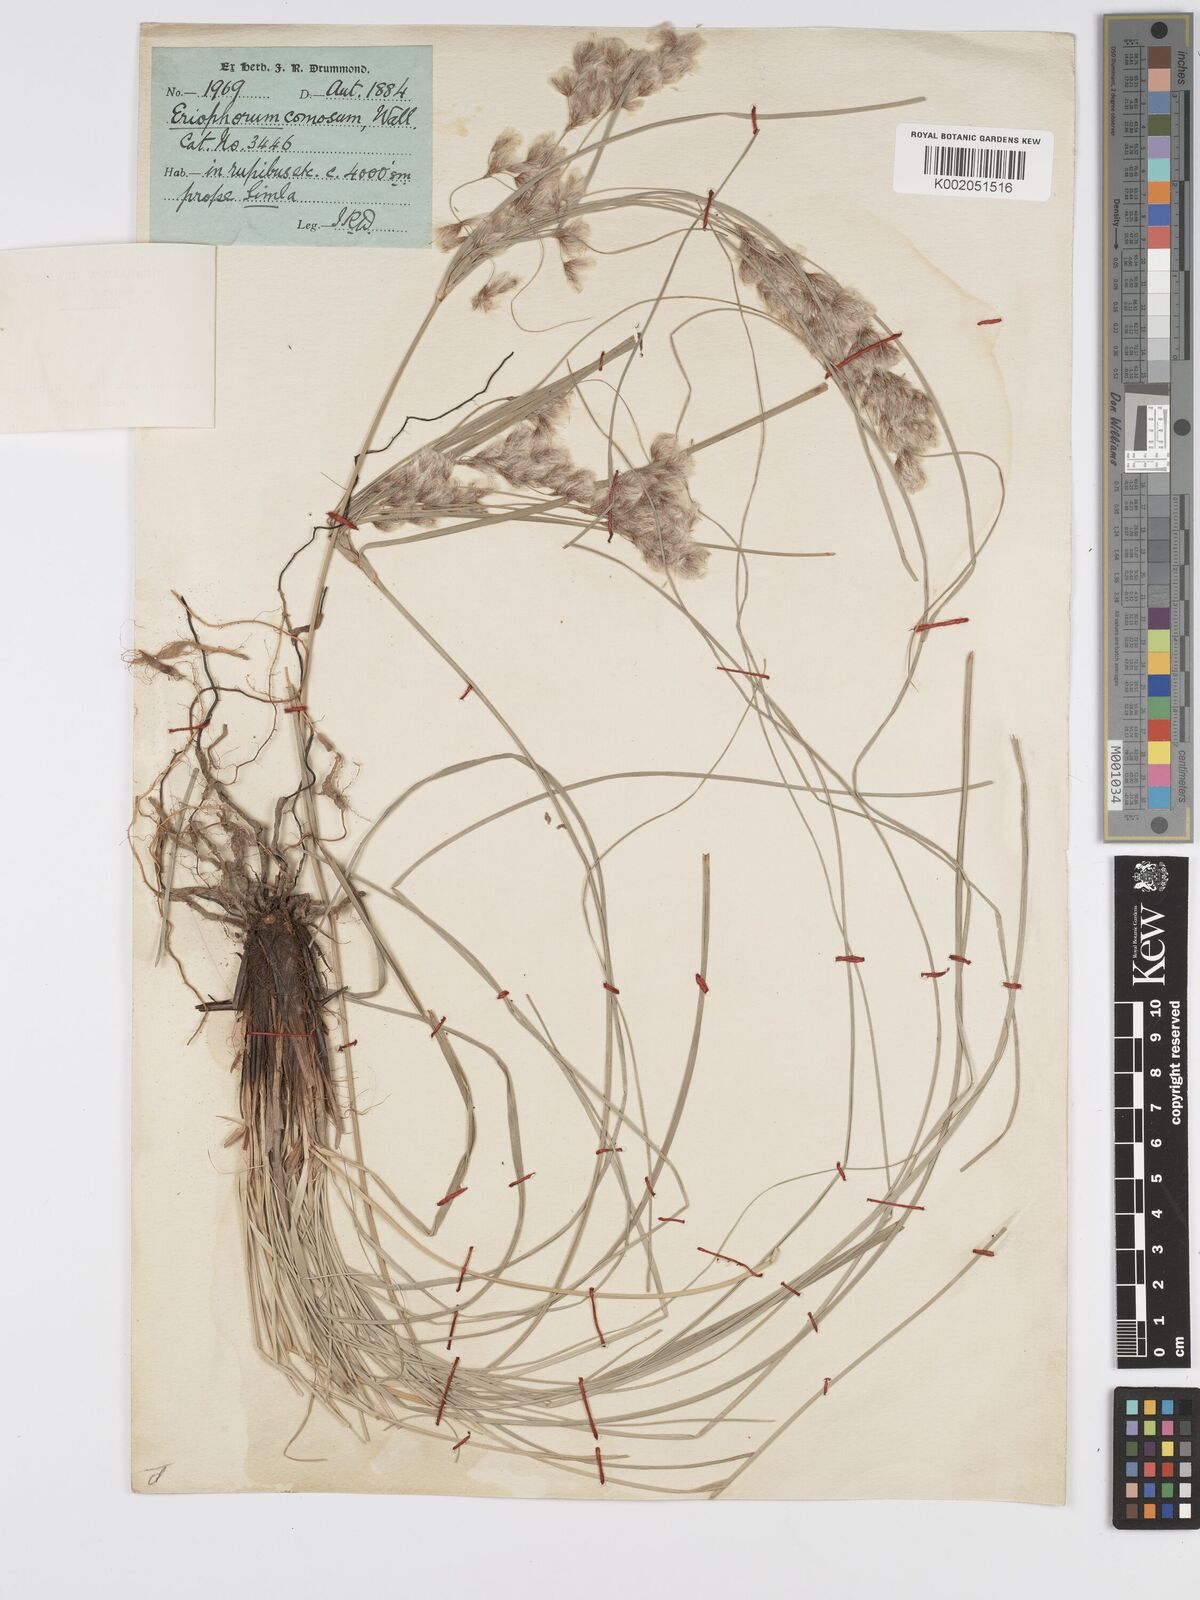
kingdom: Plantae
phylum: Tracheophyta
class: Liliopsida
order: Poales
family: Cyperaceae
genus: Erioscirpus
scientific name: Erioscirpus comosus
